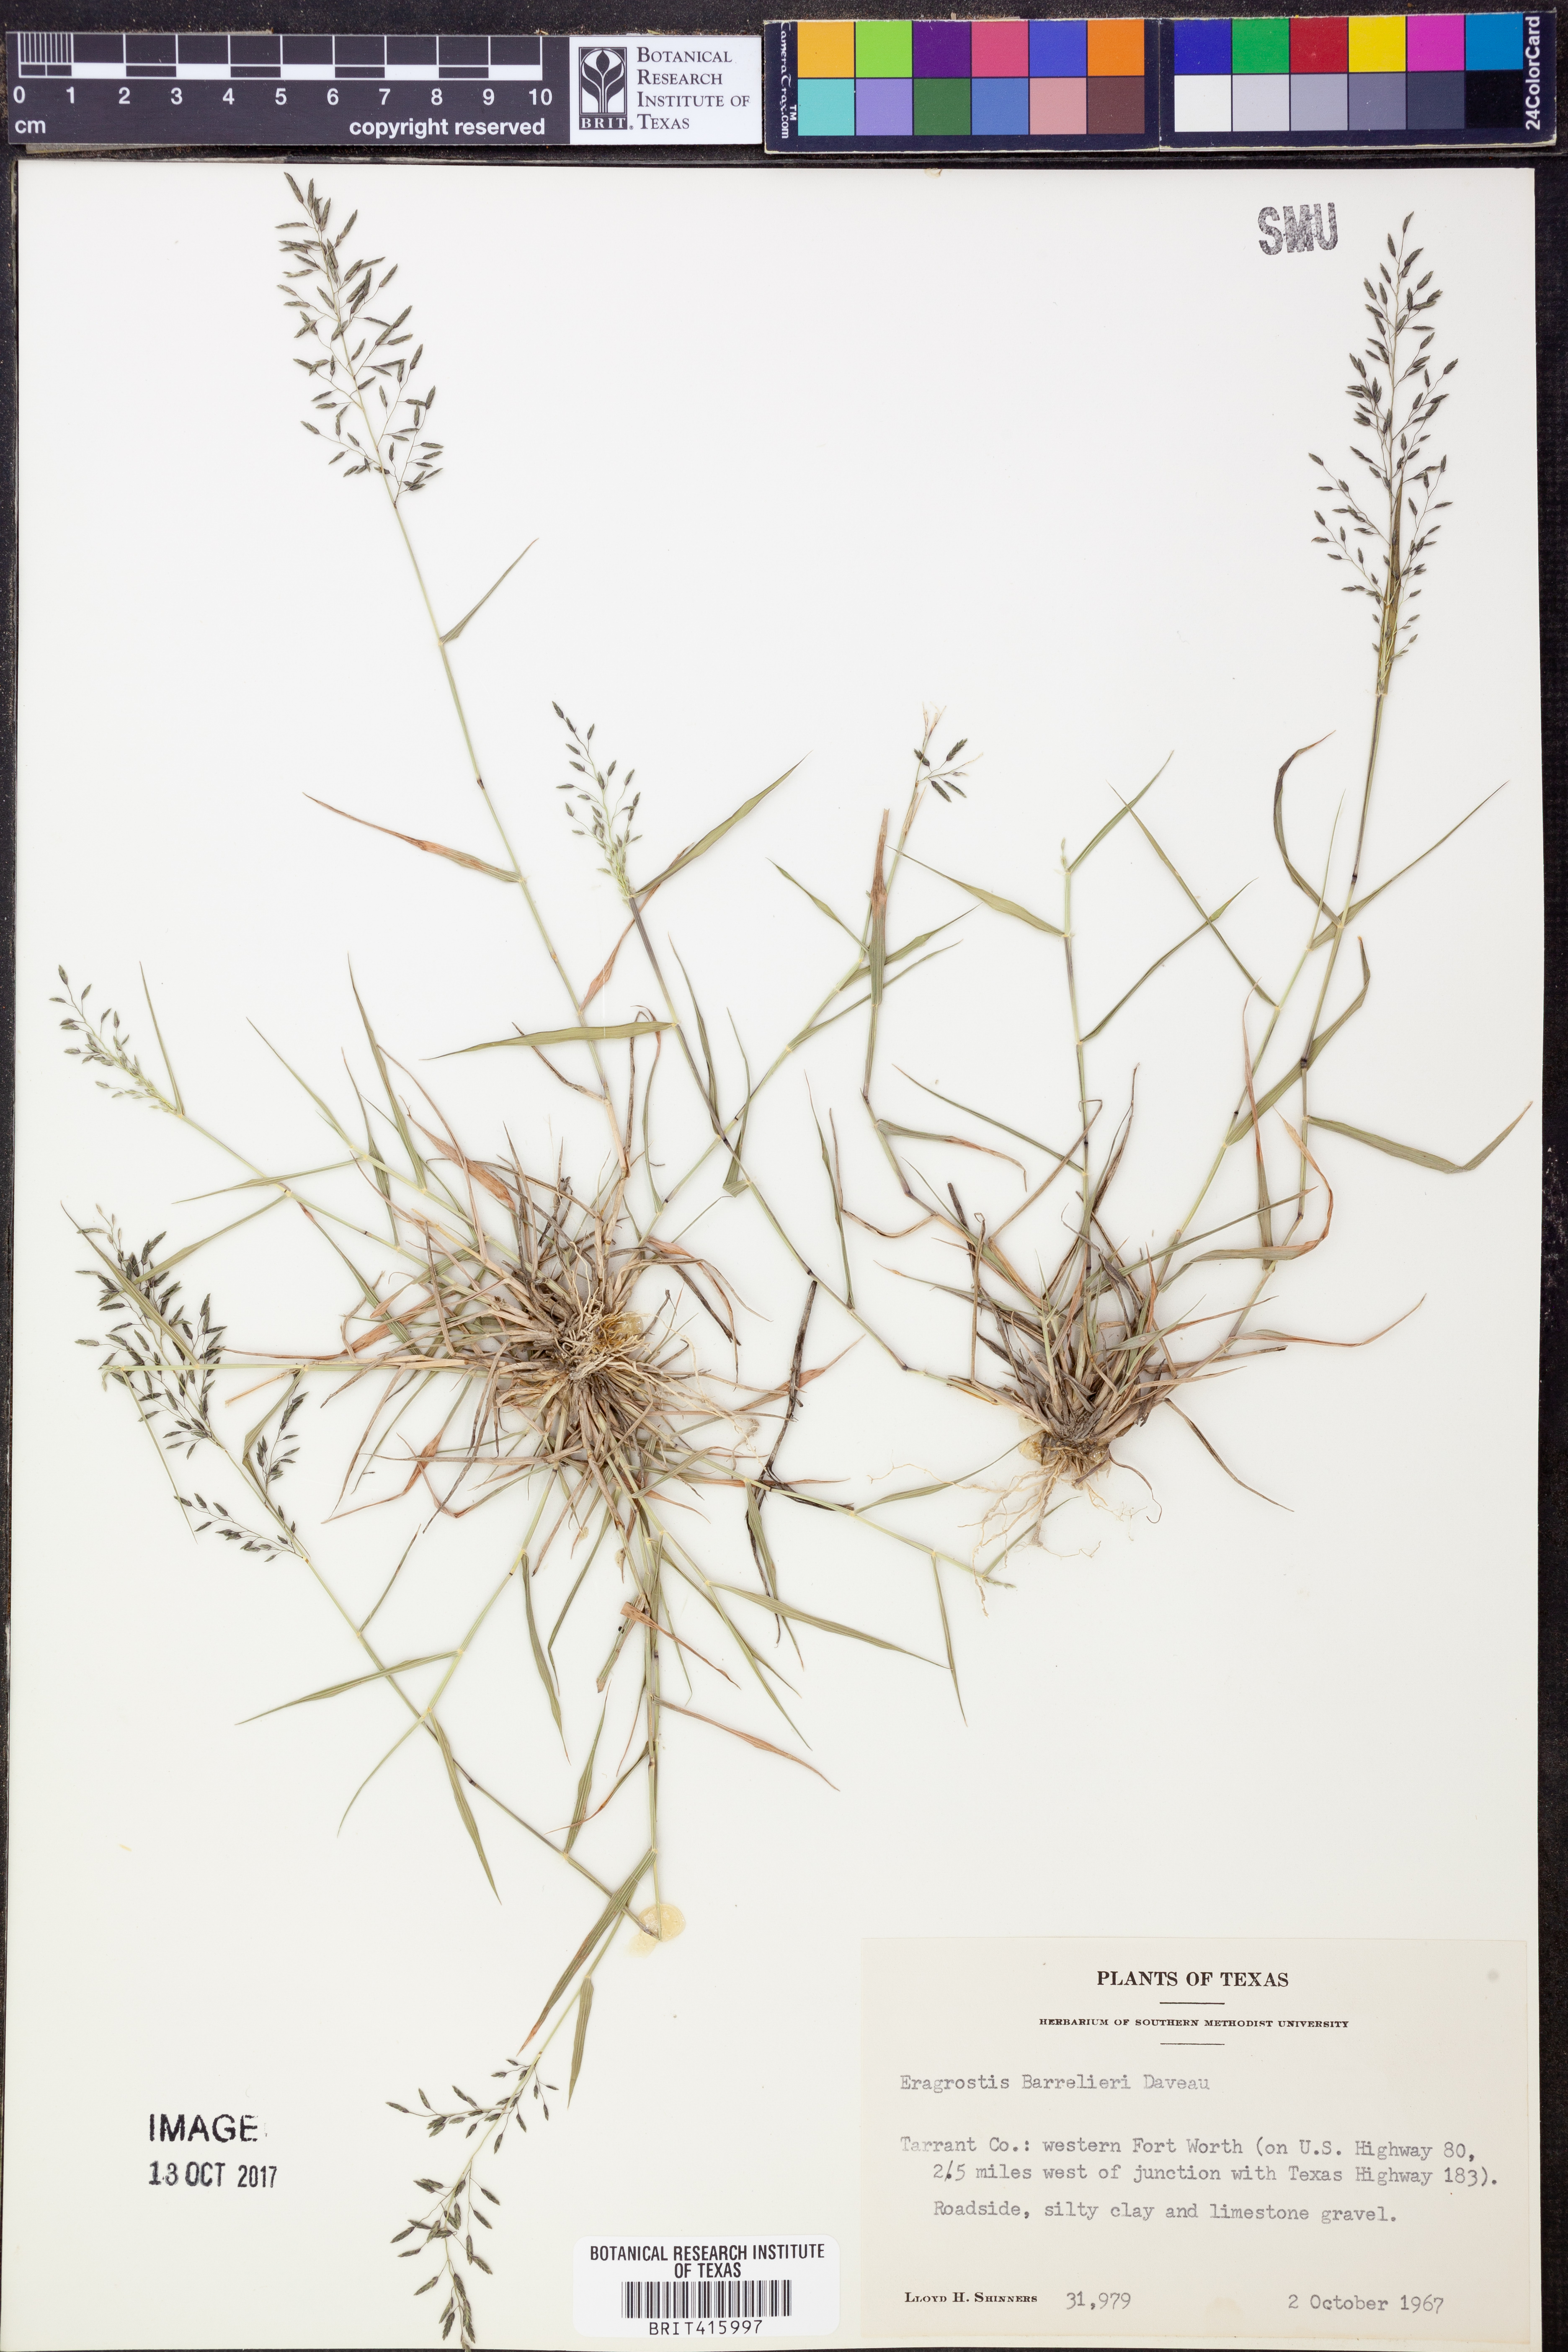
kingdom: Plantae
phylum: Tracheophyta
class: Liliopsida
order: Poales
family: Poaceae
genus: Eragrostis
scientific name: Eragrostis barrelieri
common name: Mediterranean lovegrass
